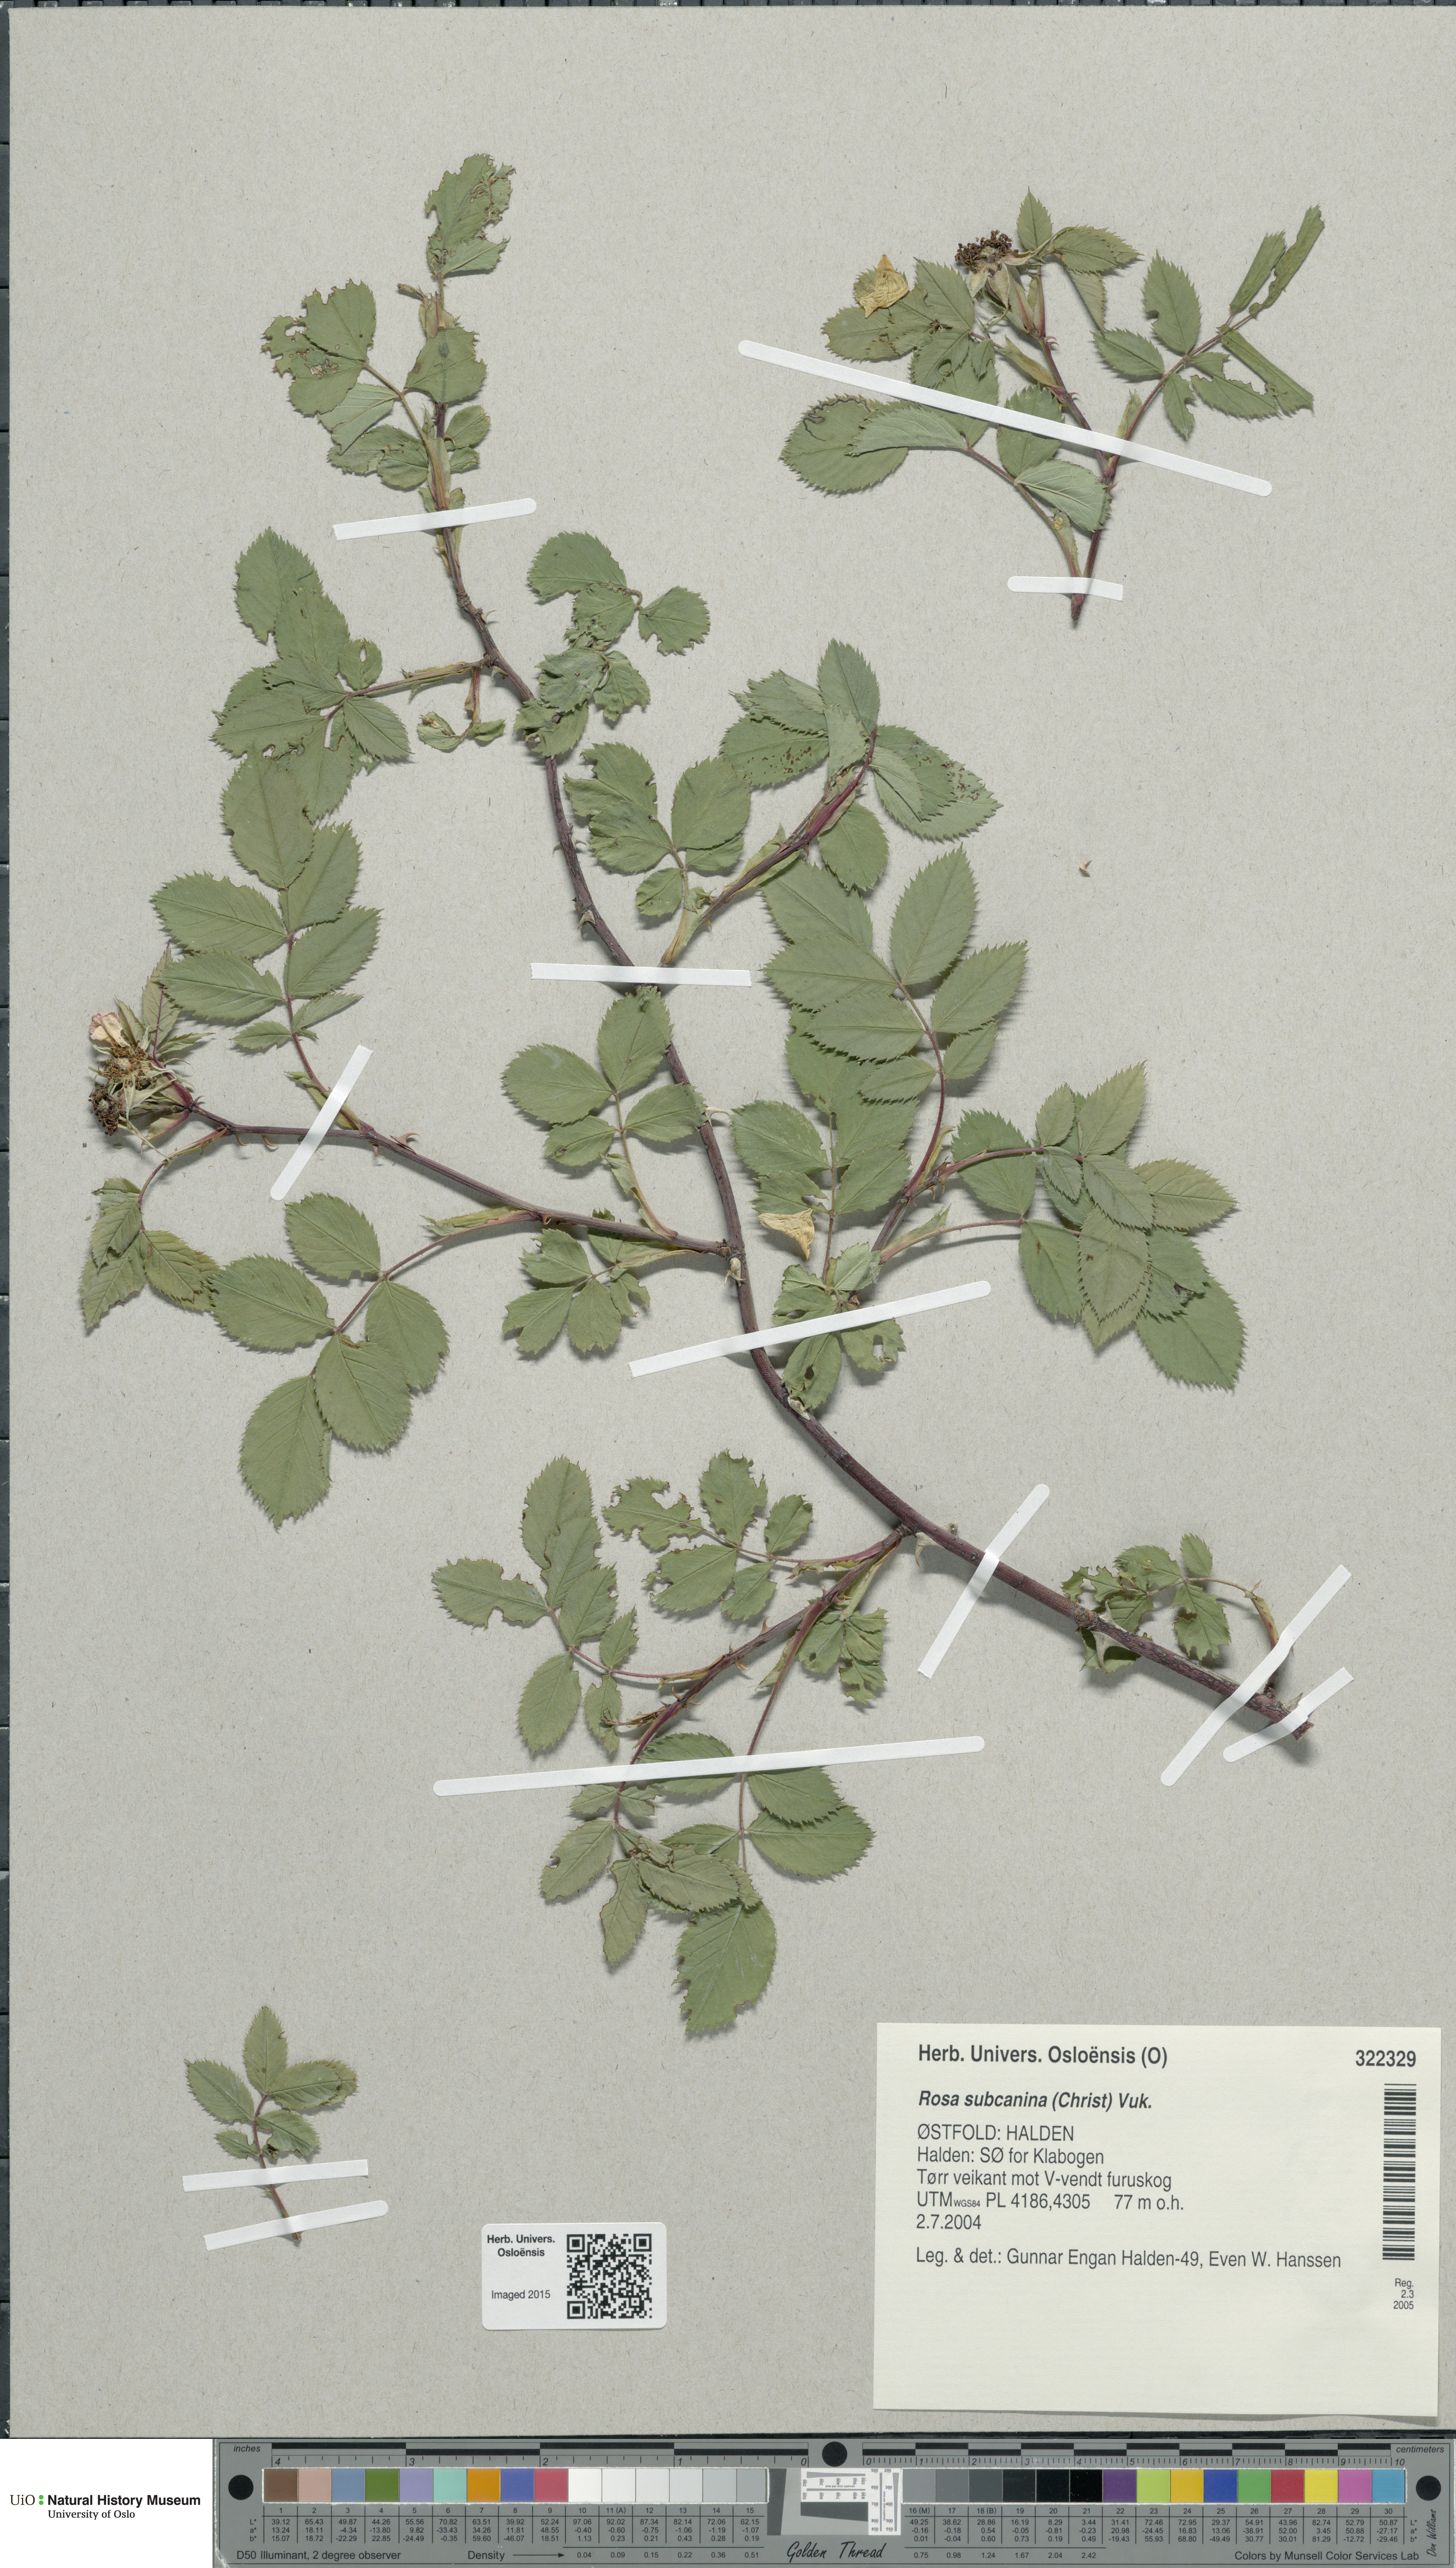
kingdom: Plantae
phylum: Tracheophyta
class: Magnoliopsida
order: Rosales
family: Rosaceae
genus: Rosa
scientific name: Rosa subcanina
